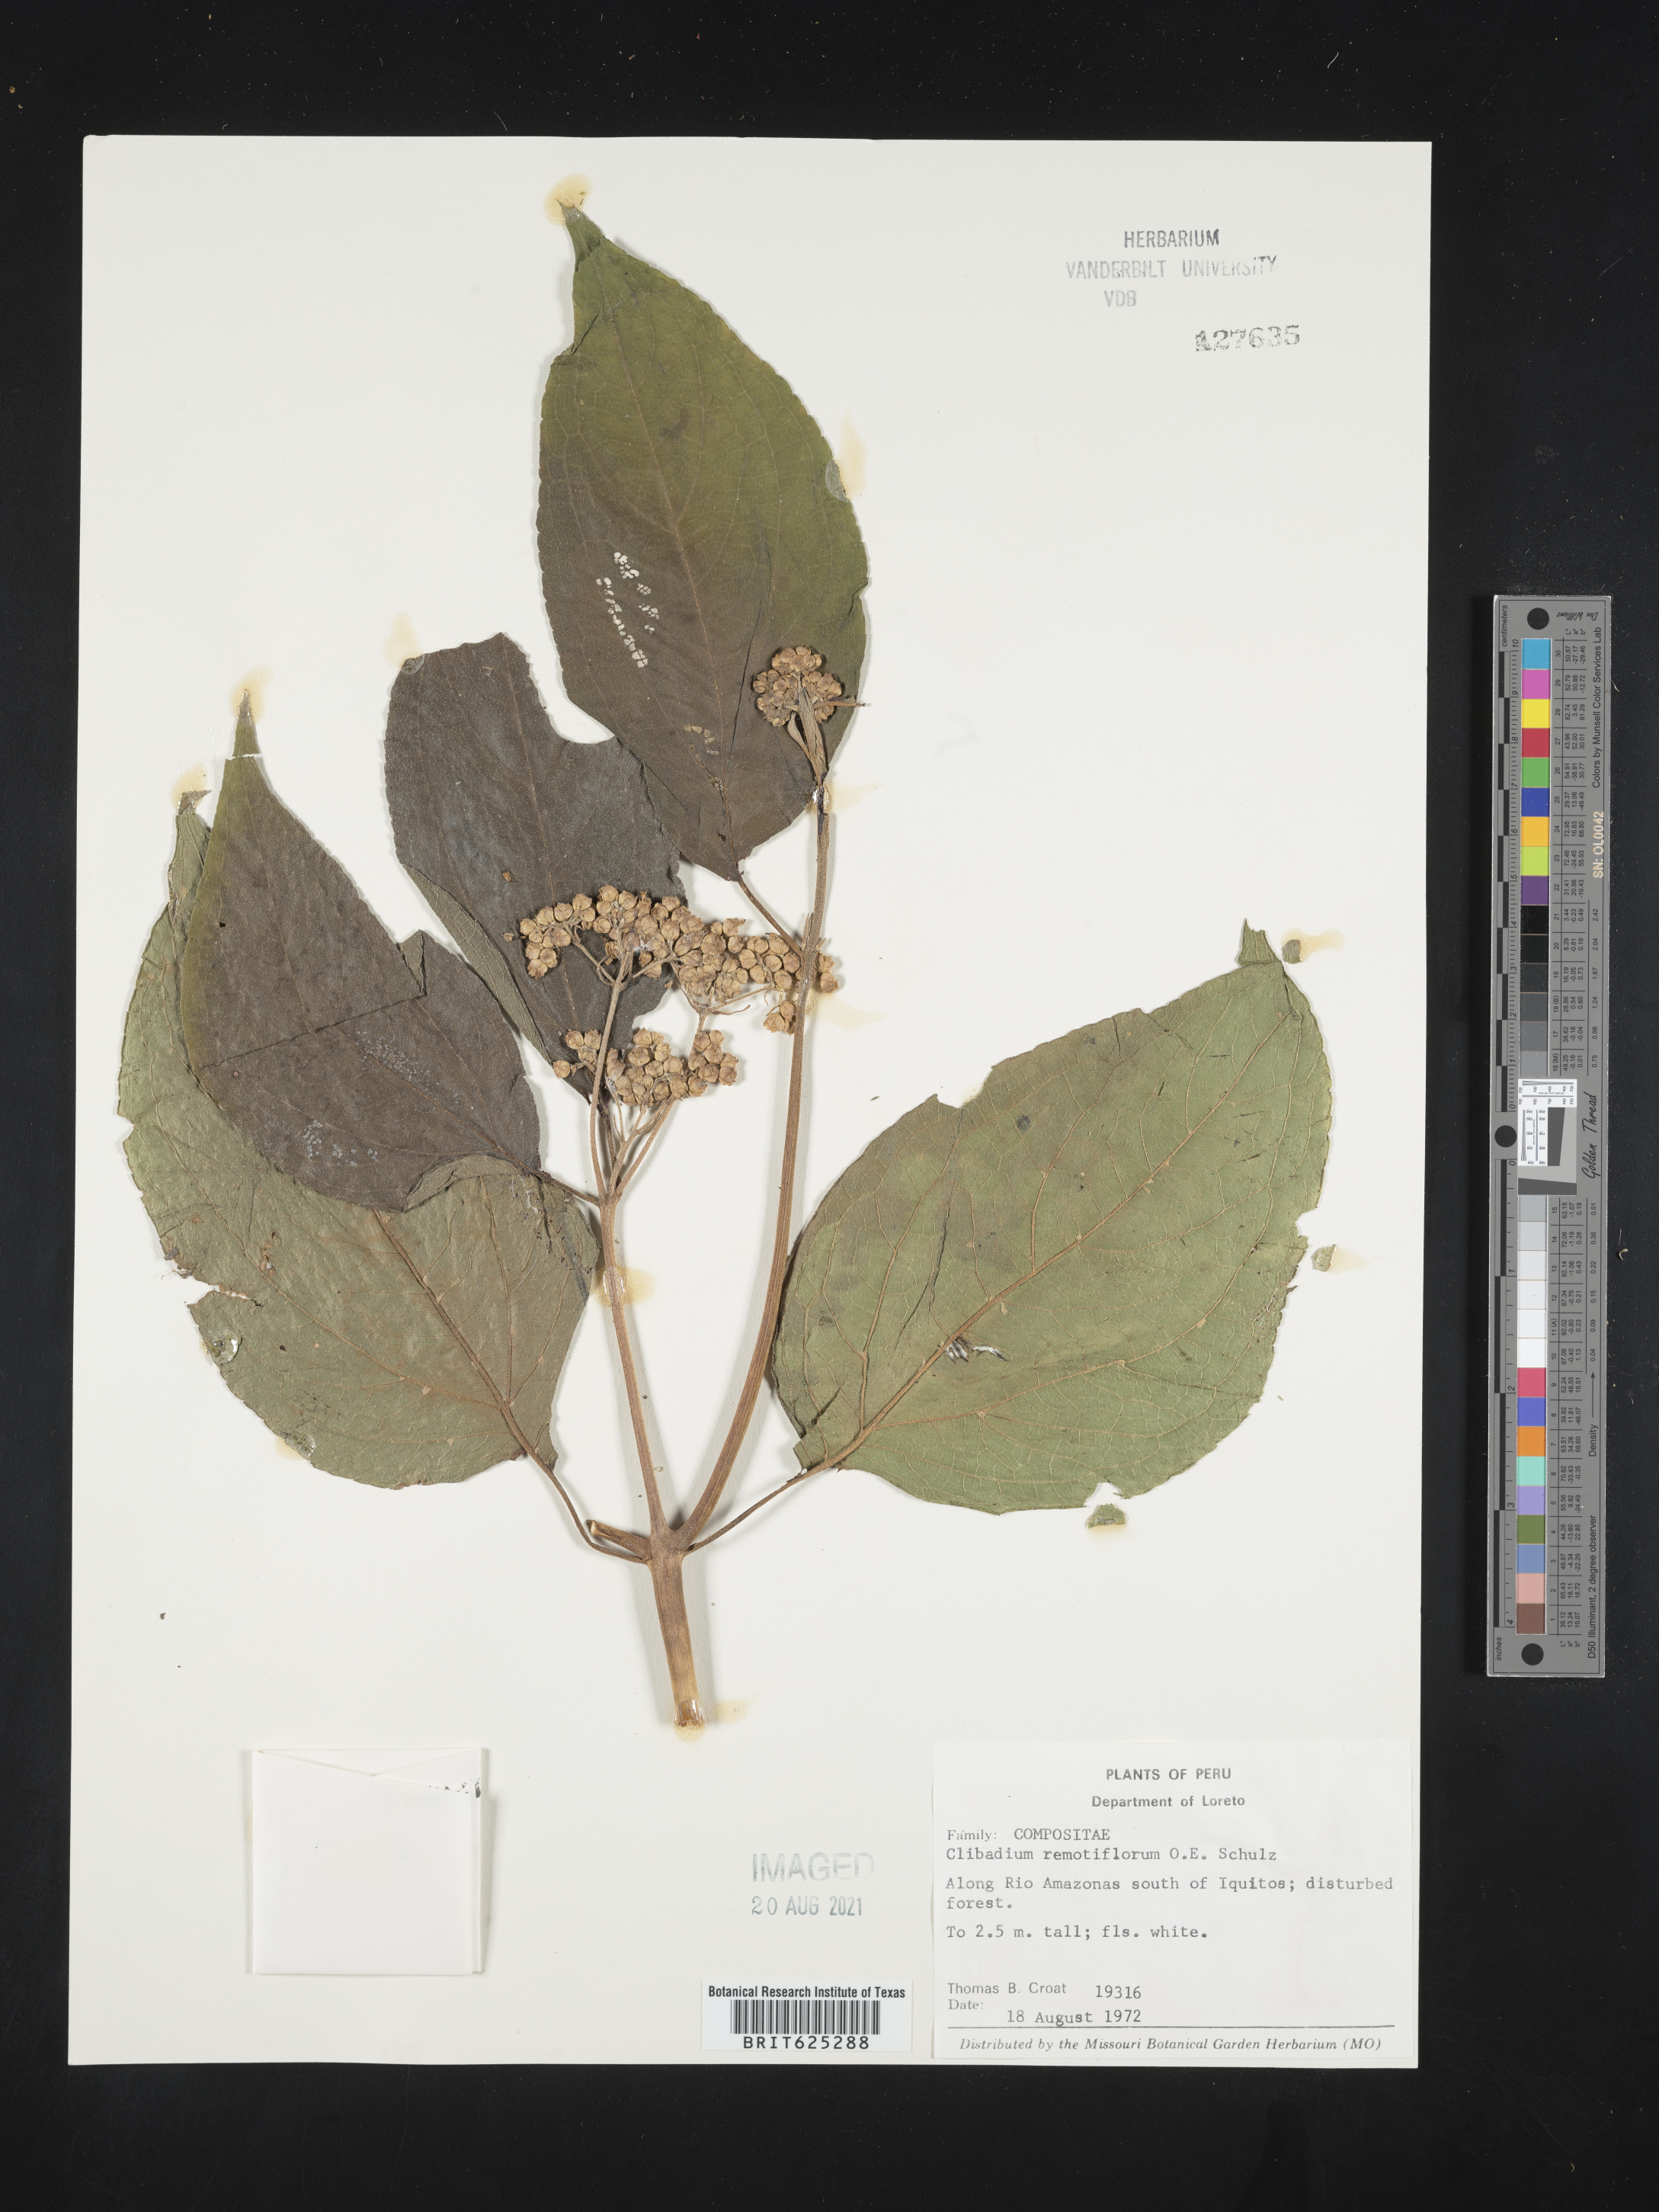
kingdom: Plantae
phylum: Tracheophyta
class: Magnoliopsida
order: Asterales
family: Asteraceae
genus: Clibadium
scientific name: Clibadium remotiflorum
